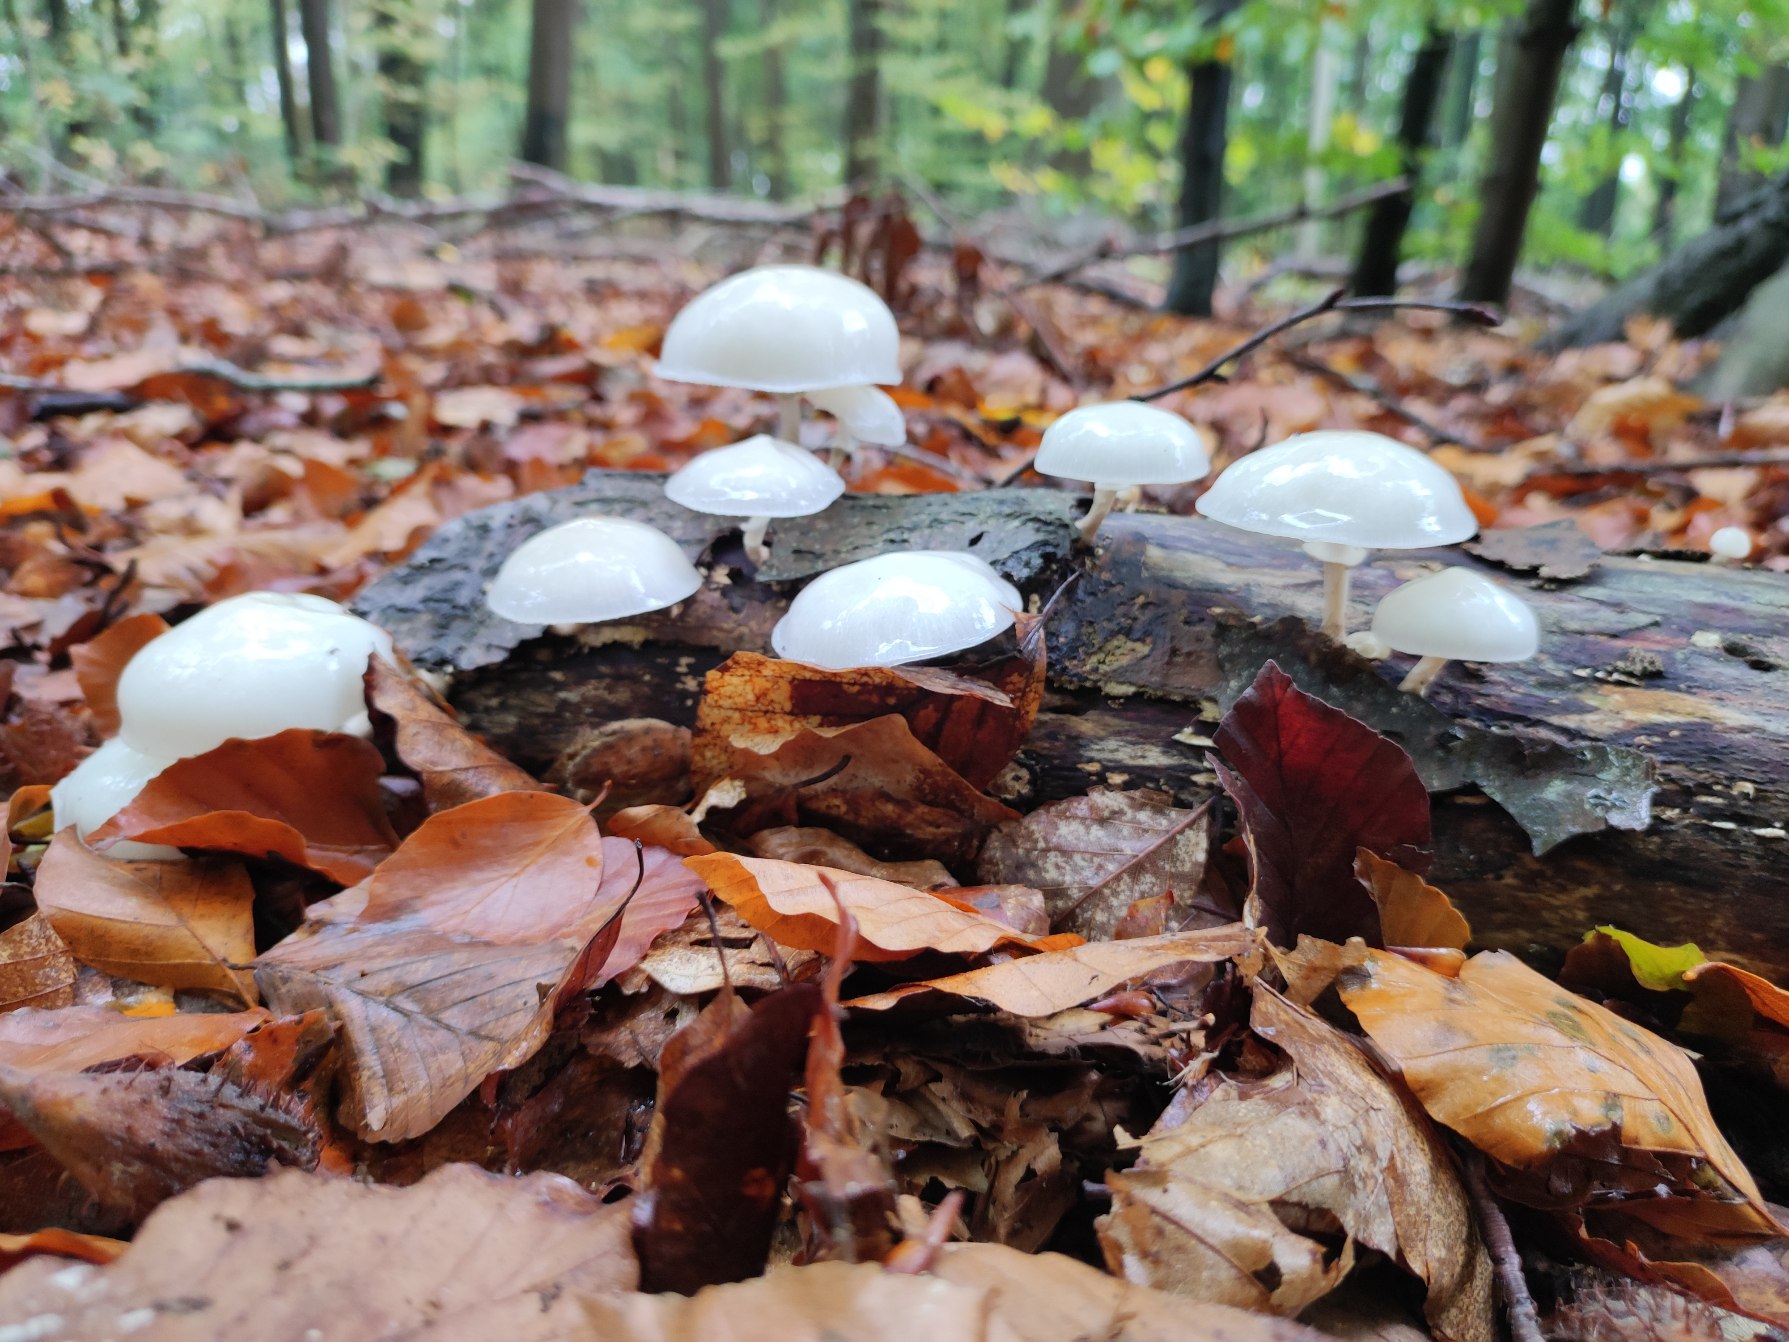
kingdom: Fungi
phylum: Basidiomycota
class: Agaricomycetes
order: Agaricales
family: Physalacriaceae
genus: Mucidula
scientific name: Mucidula
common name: Porcelænshat
